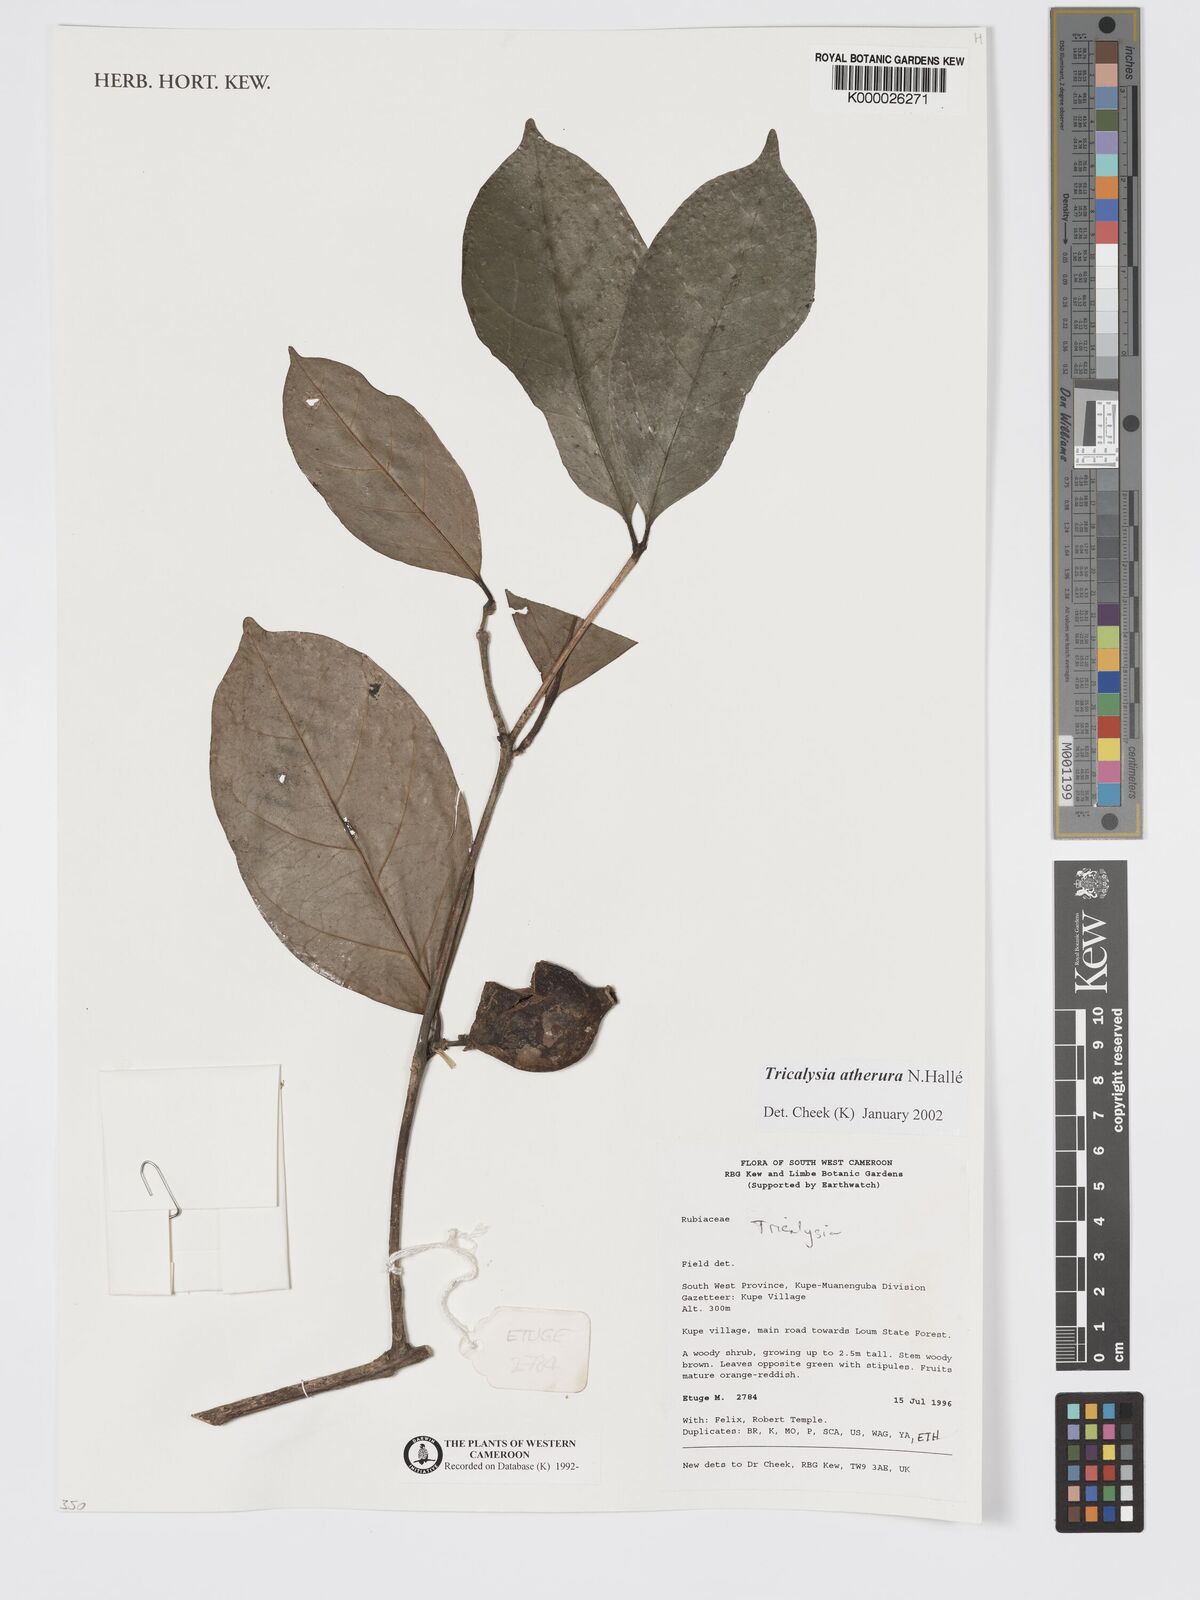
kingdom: Plantae
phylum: Tracheophyta
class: Magnoliopsida
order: Gentianales
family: Rubiaceae
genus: Tricalysia
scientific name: Tricalysia
